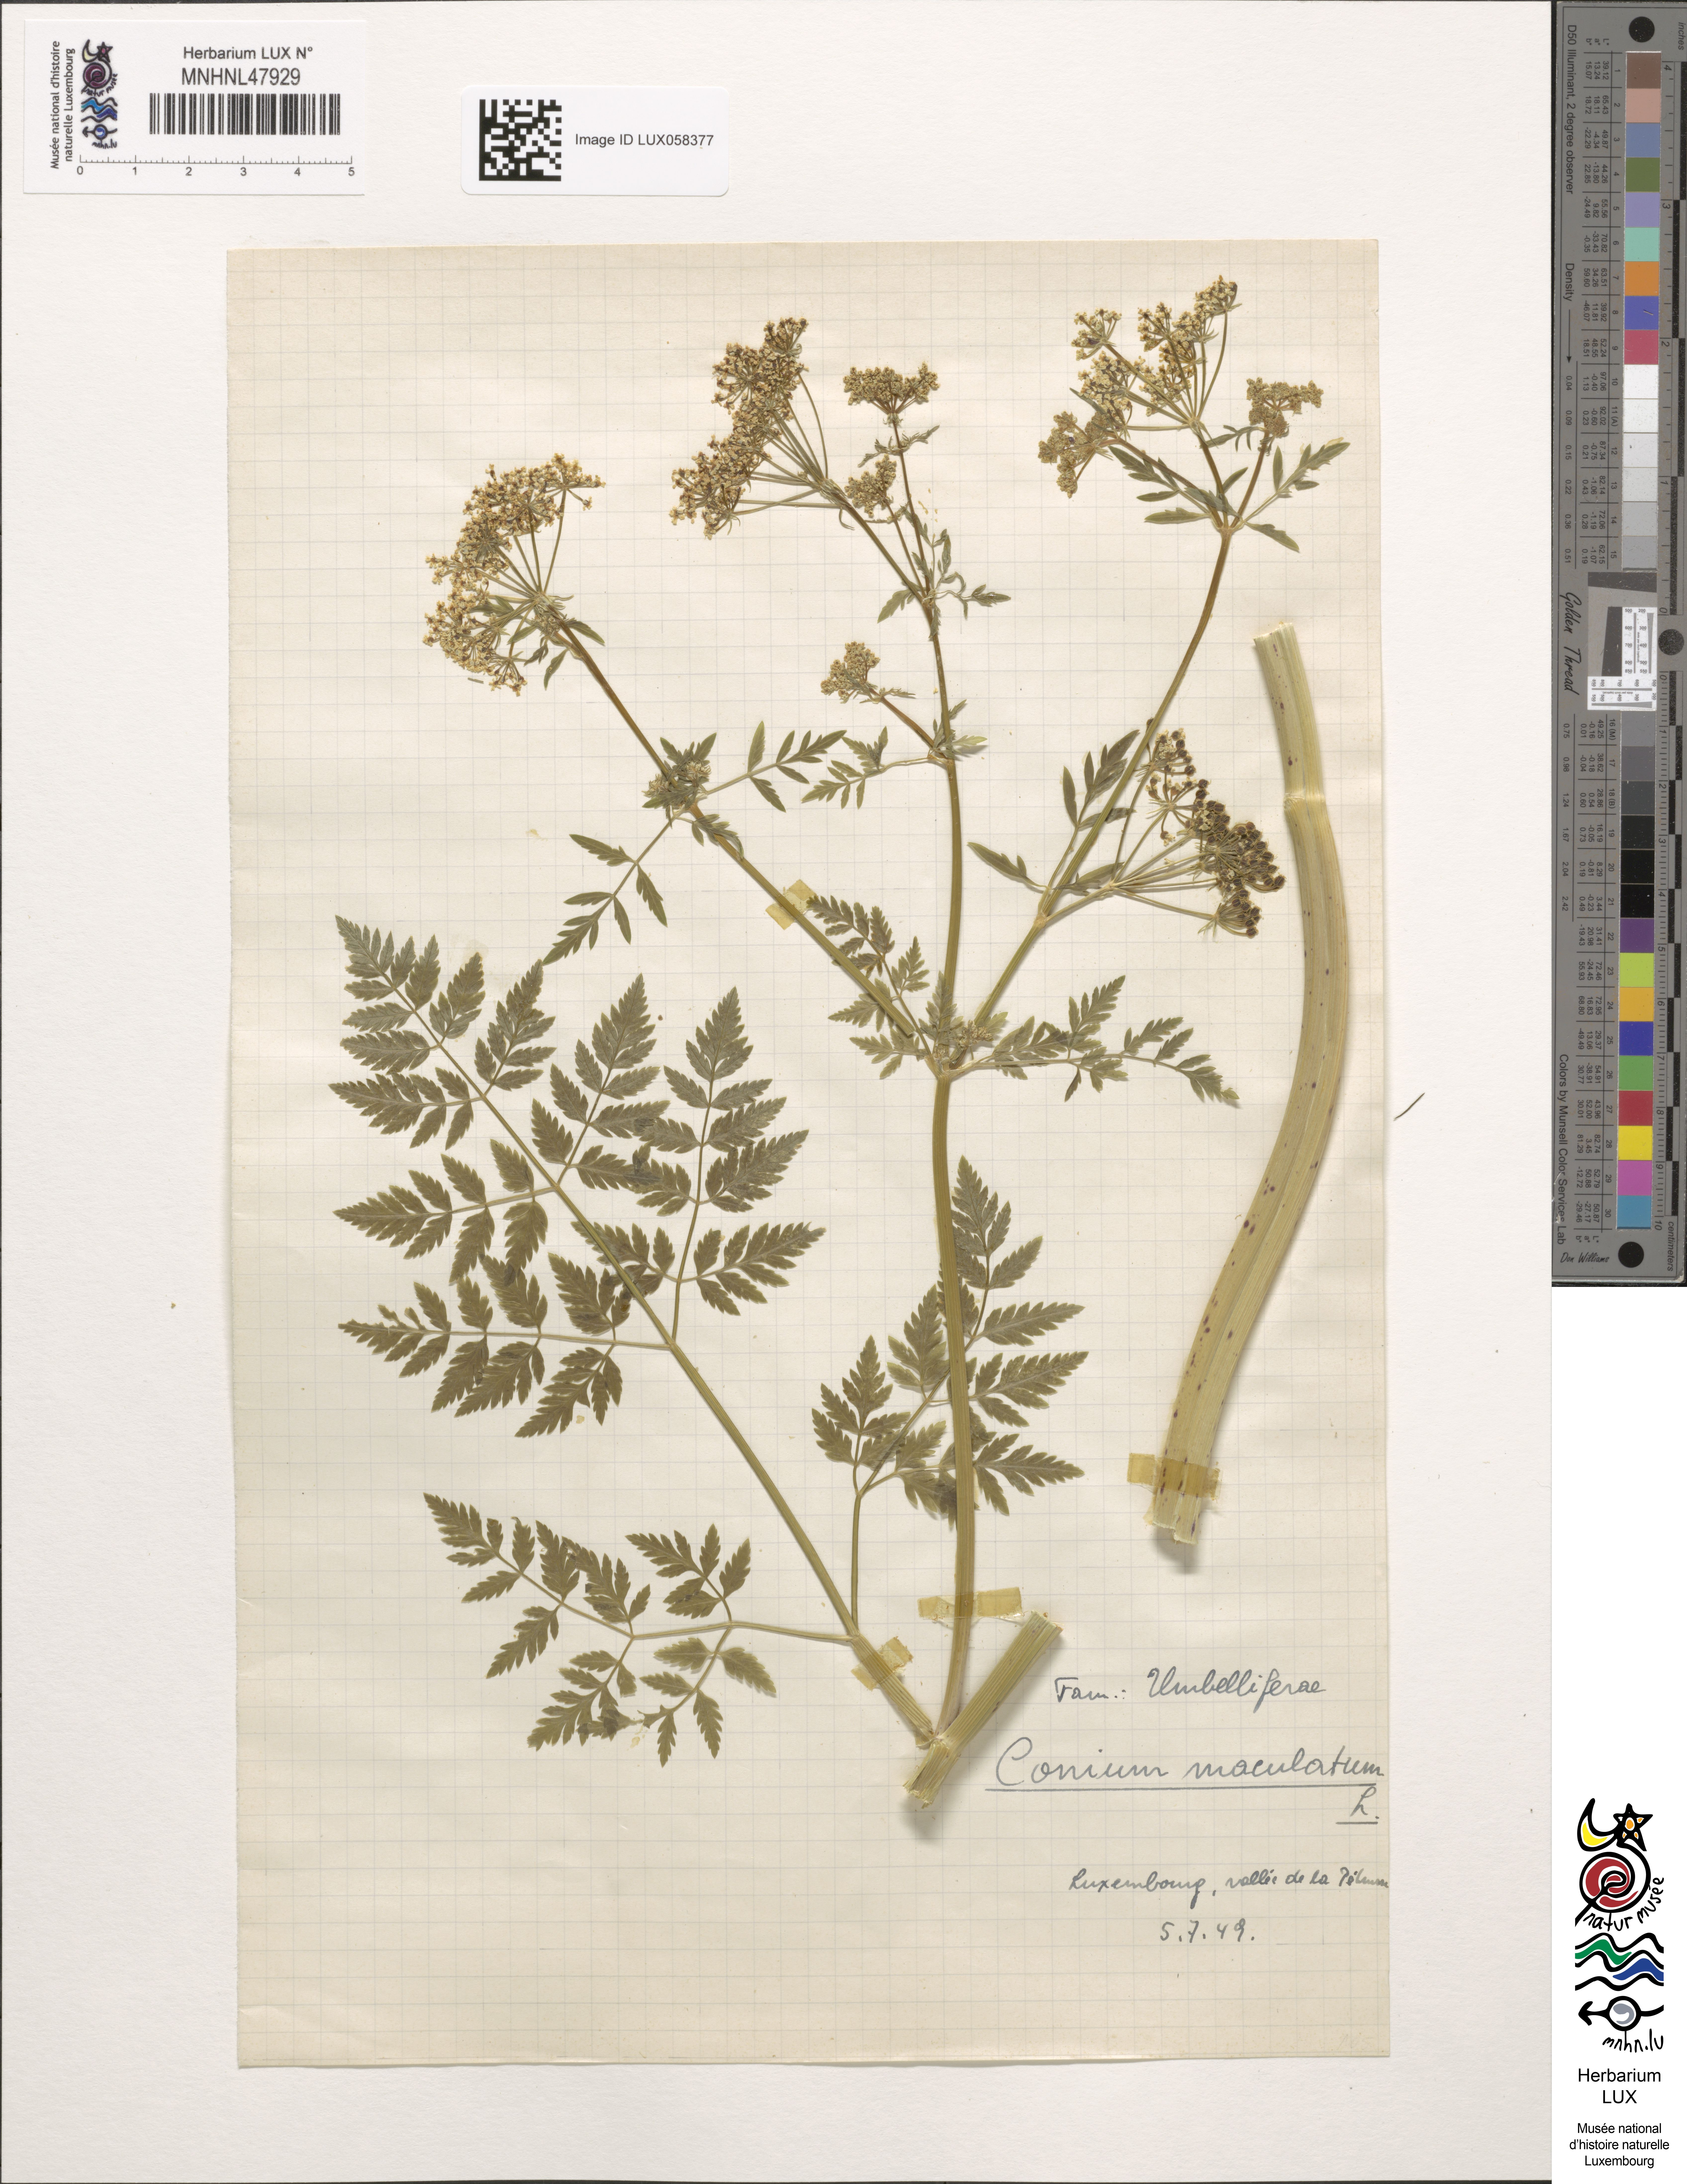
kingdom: Plantae
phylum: Tracheophyta
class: Magnoliopsida
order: Apiales
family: Apiaceae
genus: Conium
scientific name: Conium maculatum
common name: Hemlock
